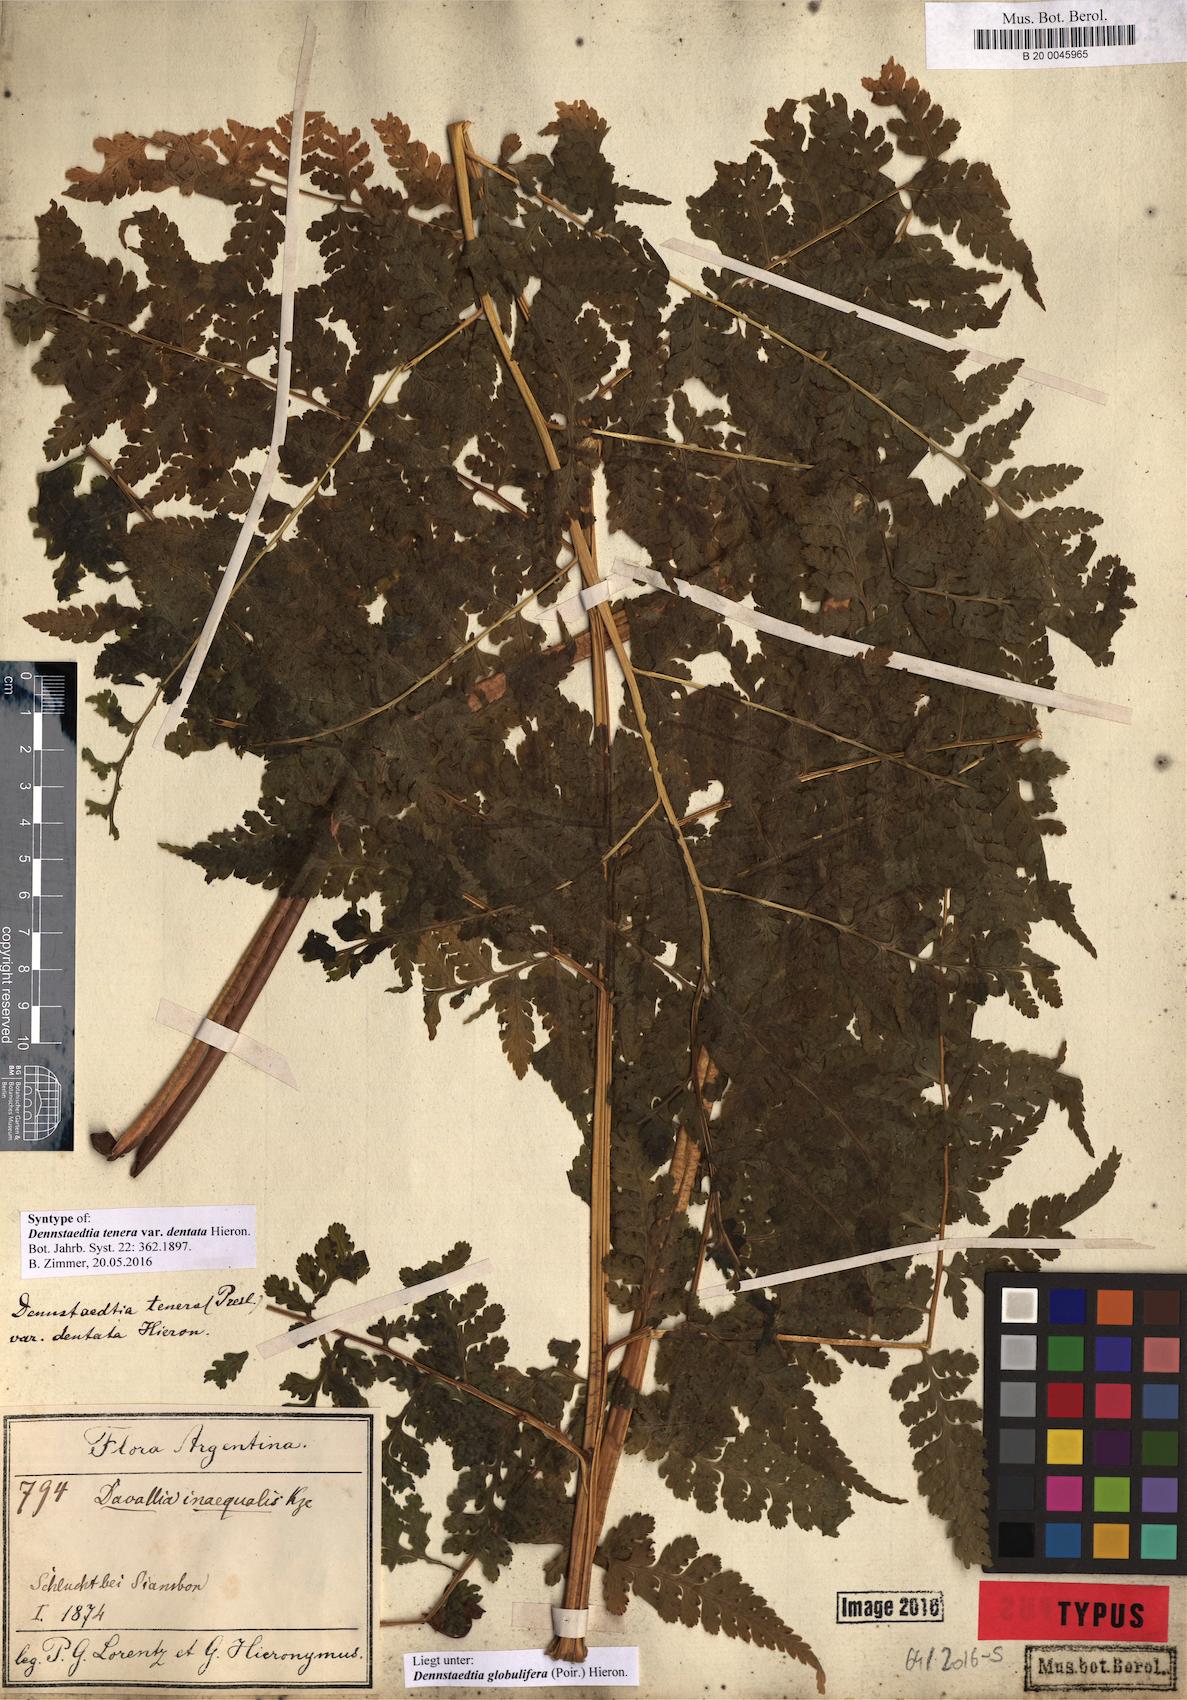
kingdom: Plantae
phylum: Tracheophyta
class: Polypodiopsida
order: Polypodiales
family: Dennstaedtiaceae
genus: Mucura
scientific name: Mucura globulifera
